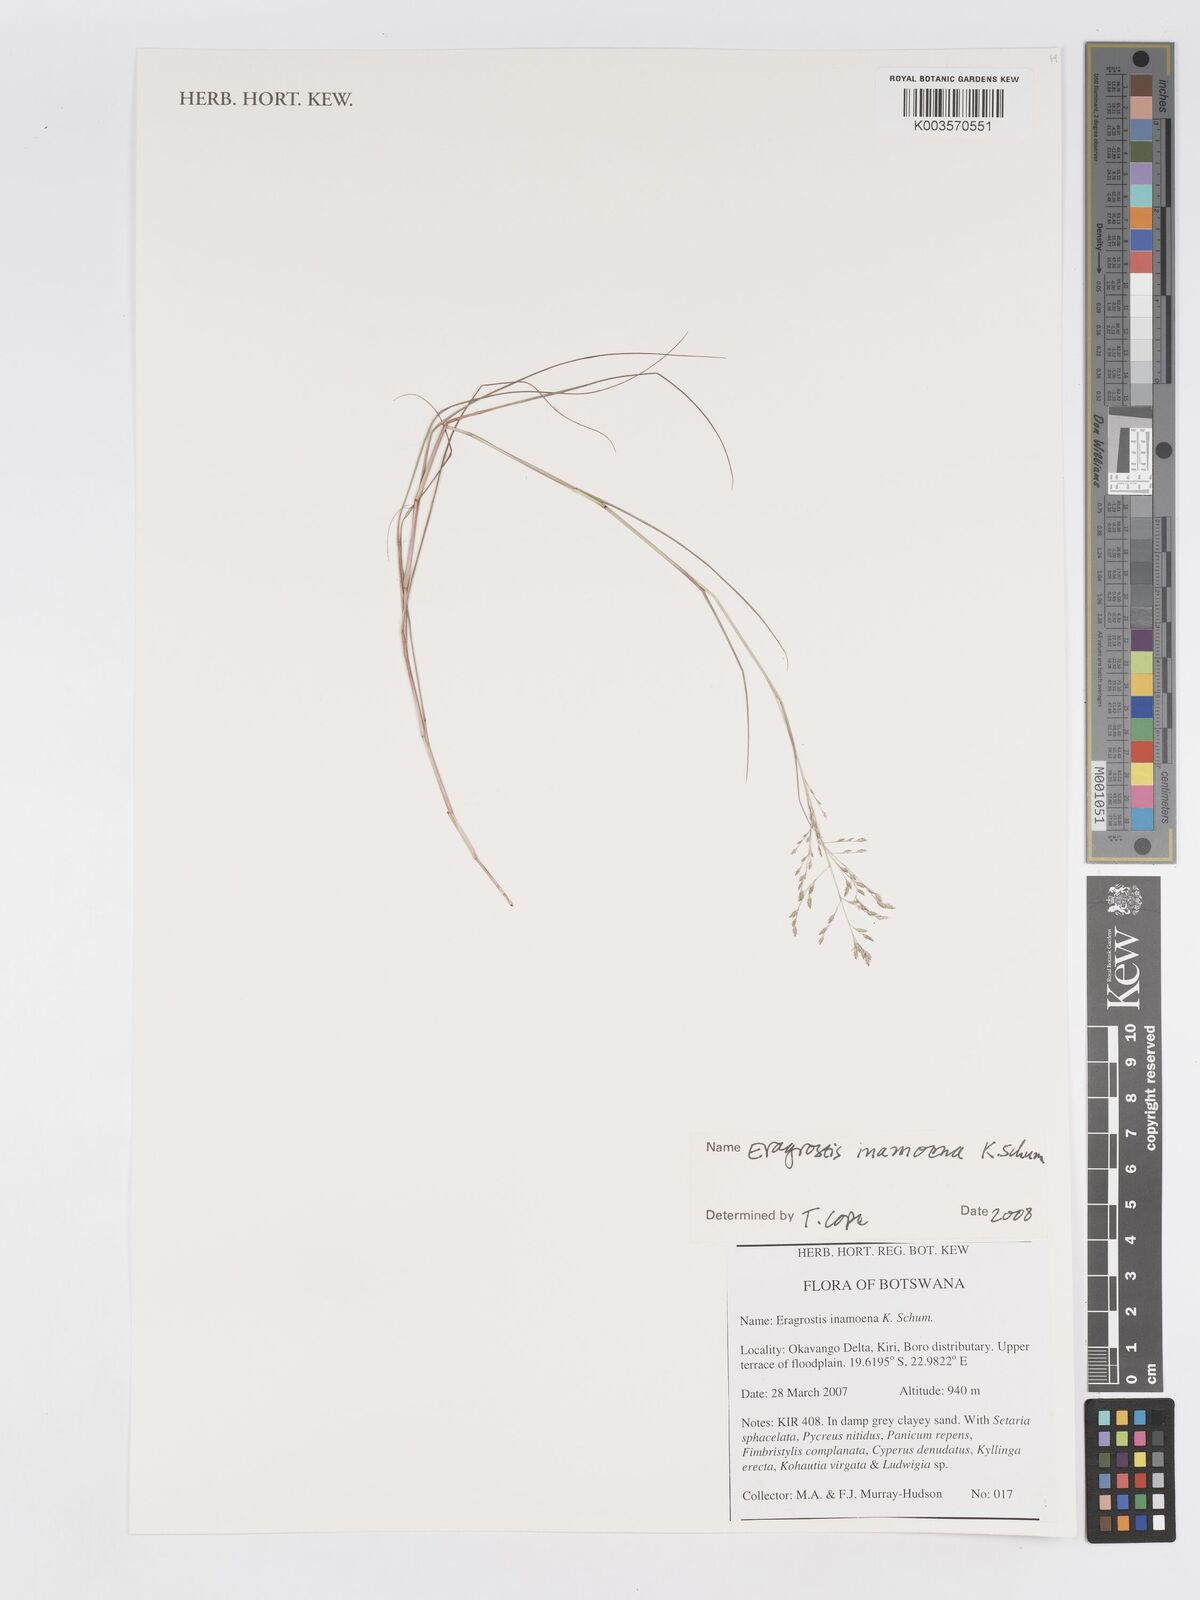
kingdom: Plantae
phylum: Tracheophyta
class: Liliopsida
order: Poales
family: Poaceae
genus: Eragrostis
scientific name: Eragrostis inamoena
